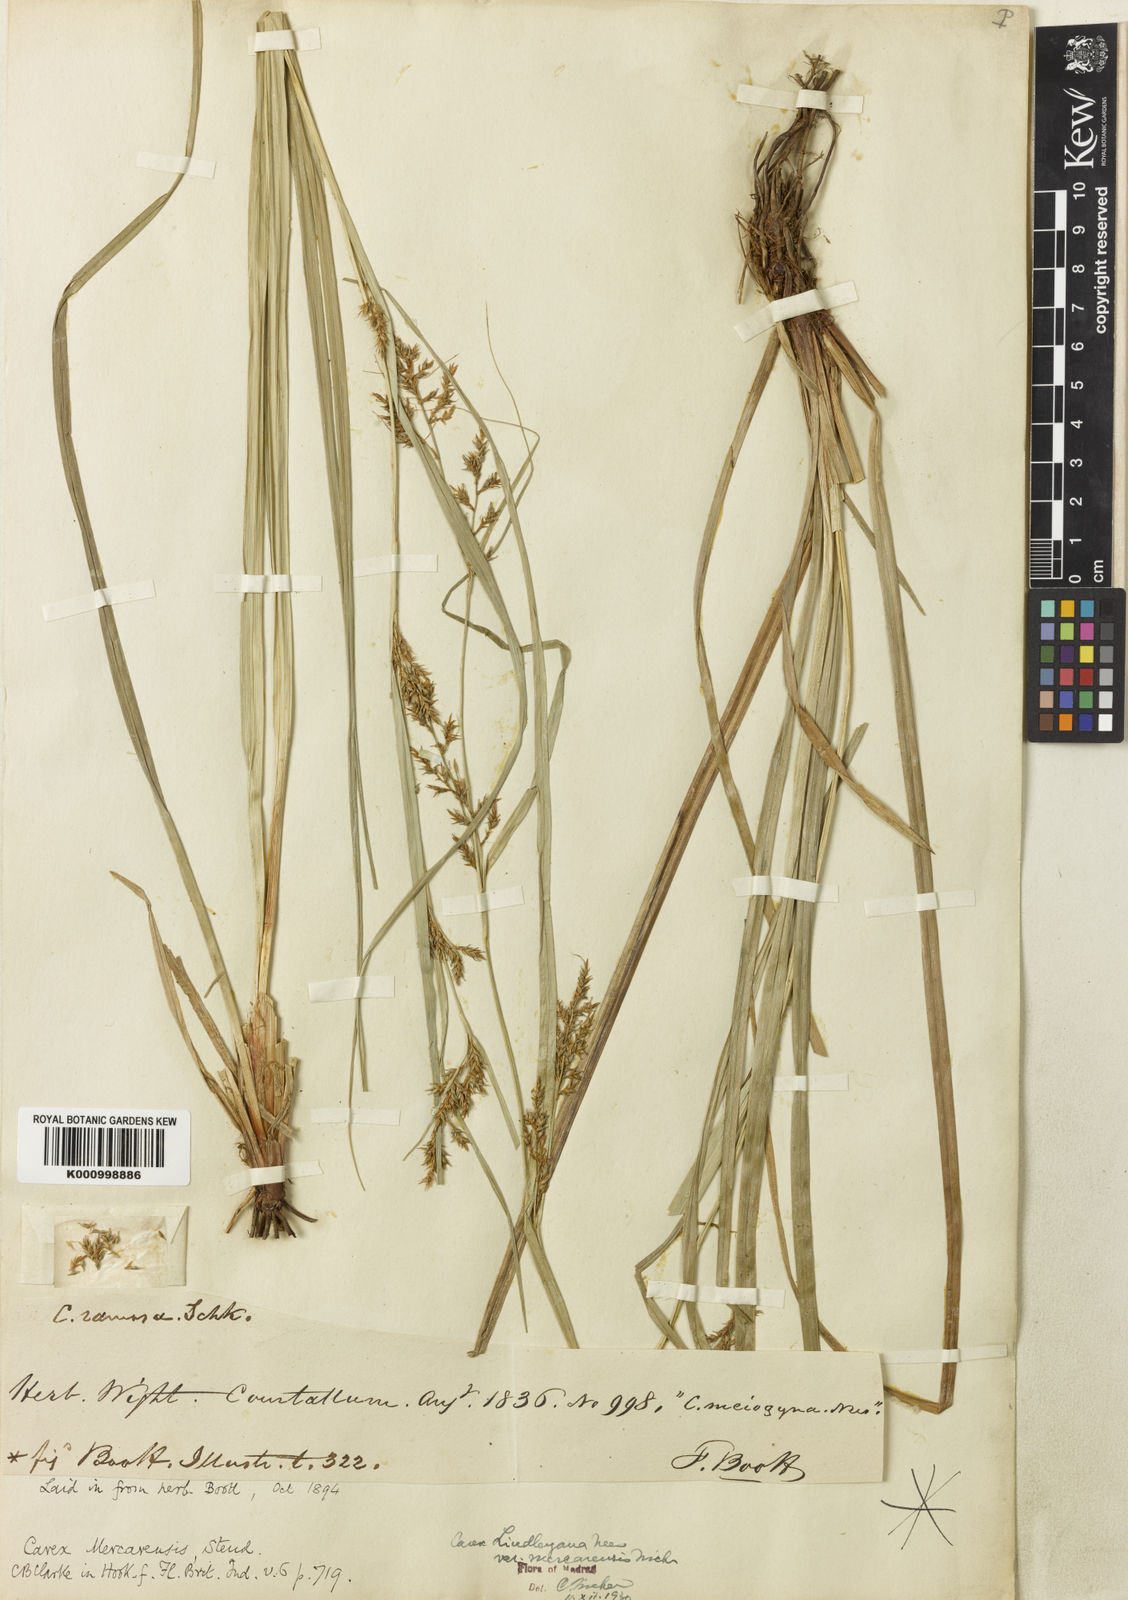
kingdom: Plantae
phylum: Tracheophyta
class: Liliopsida
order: Poales
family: Cyperaceae
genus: Carex
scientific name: Carex filicina
